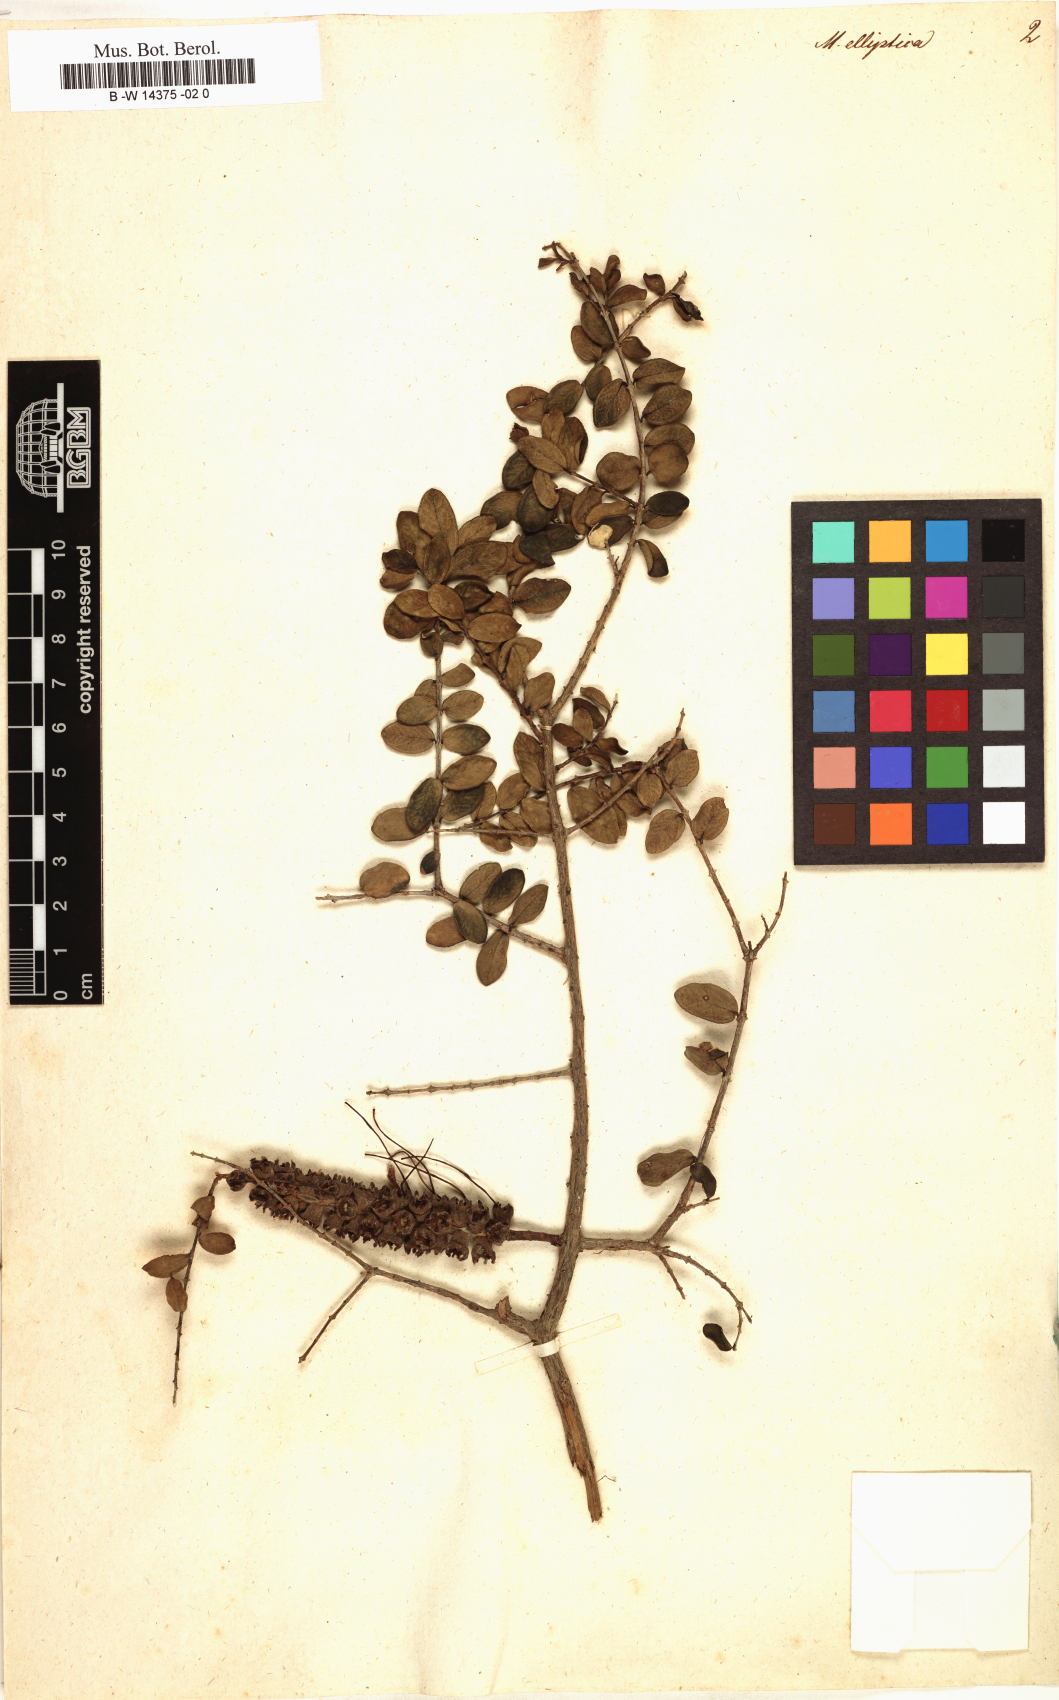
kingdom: Plantae
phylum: Tracheophyta
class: Magnoliopsida
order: Myrtales
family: Myrtaceae
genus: Melaleuca
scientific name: Melaleuca elliptica
